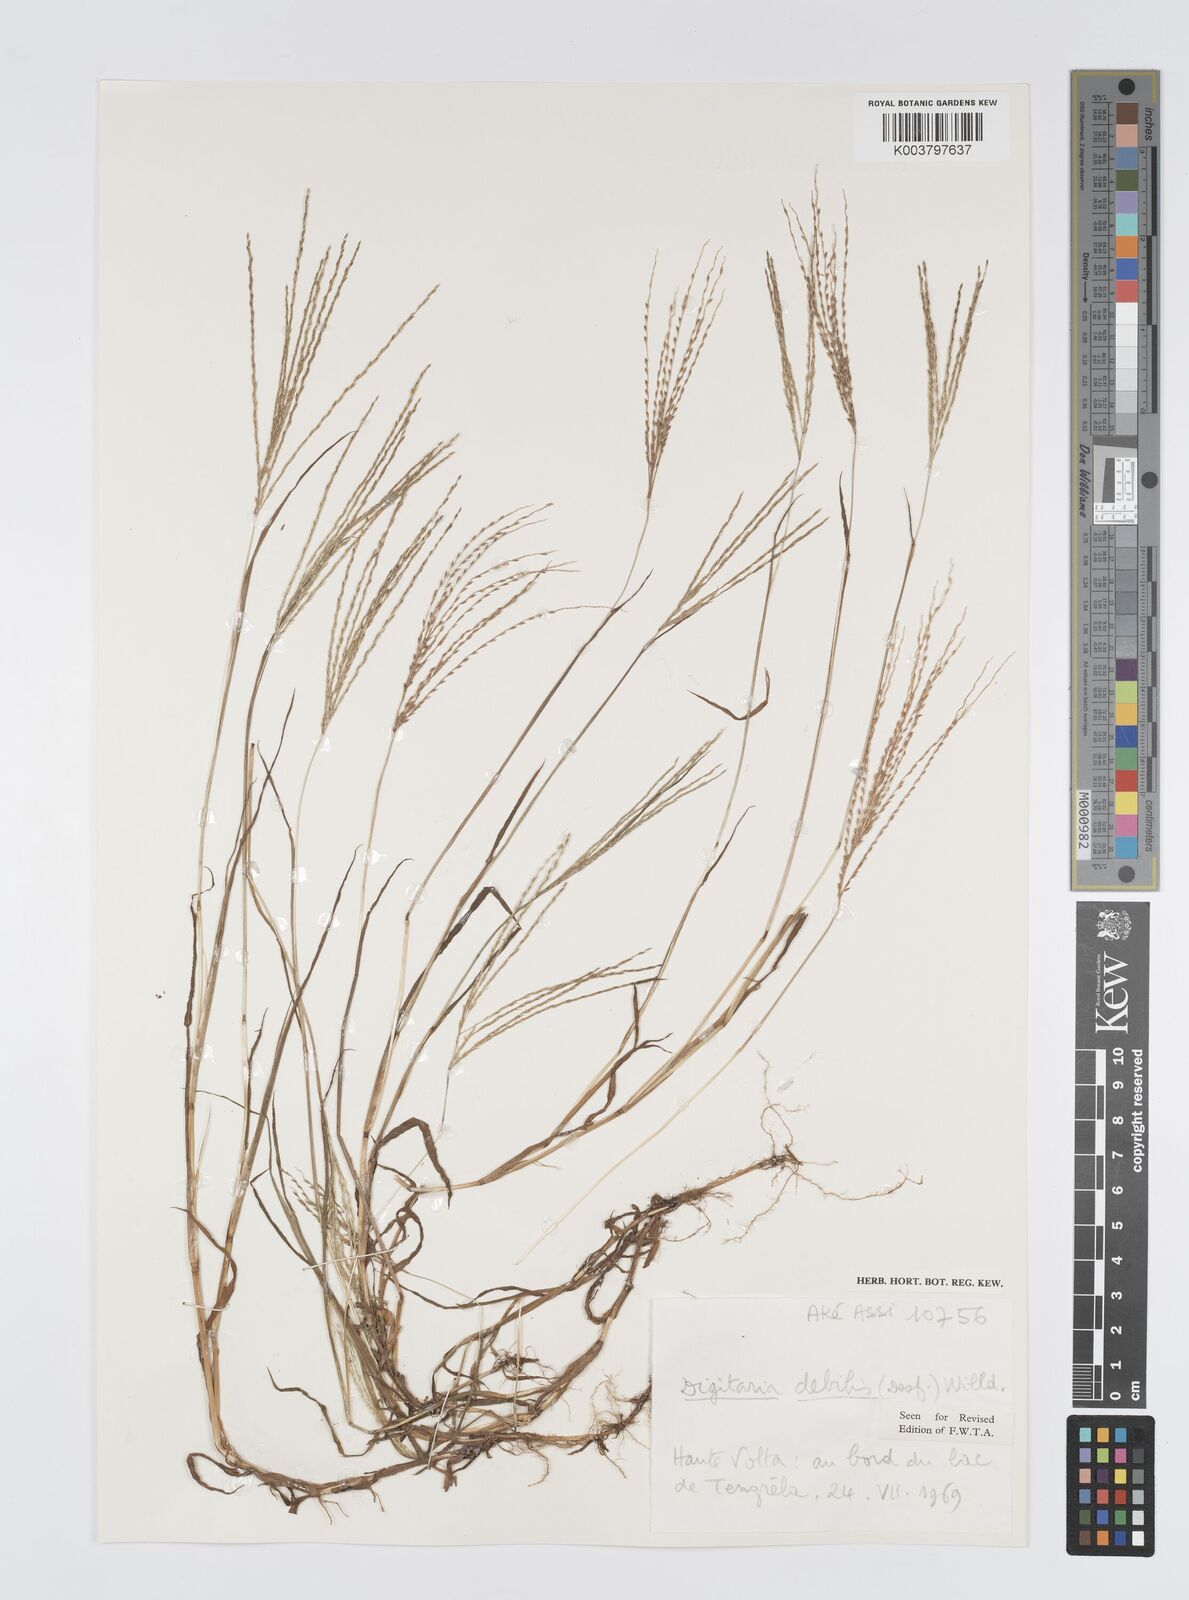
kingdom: Plantae
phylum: Tracheophyta
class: Liliopsida
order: Poales
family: Poaceae
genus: Digitaria
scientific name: Digitaria debilis
